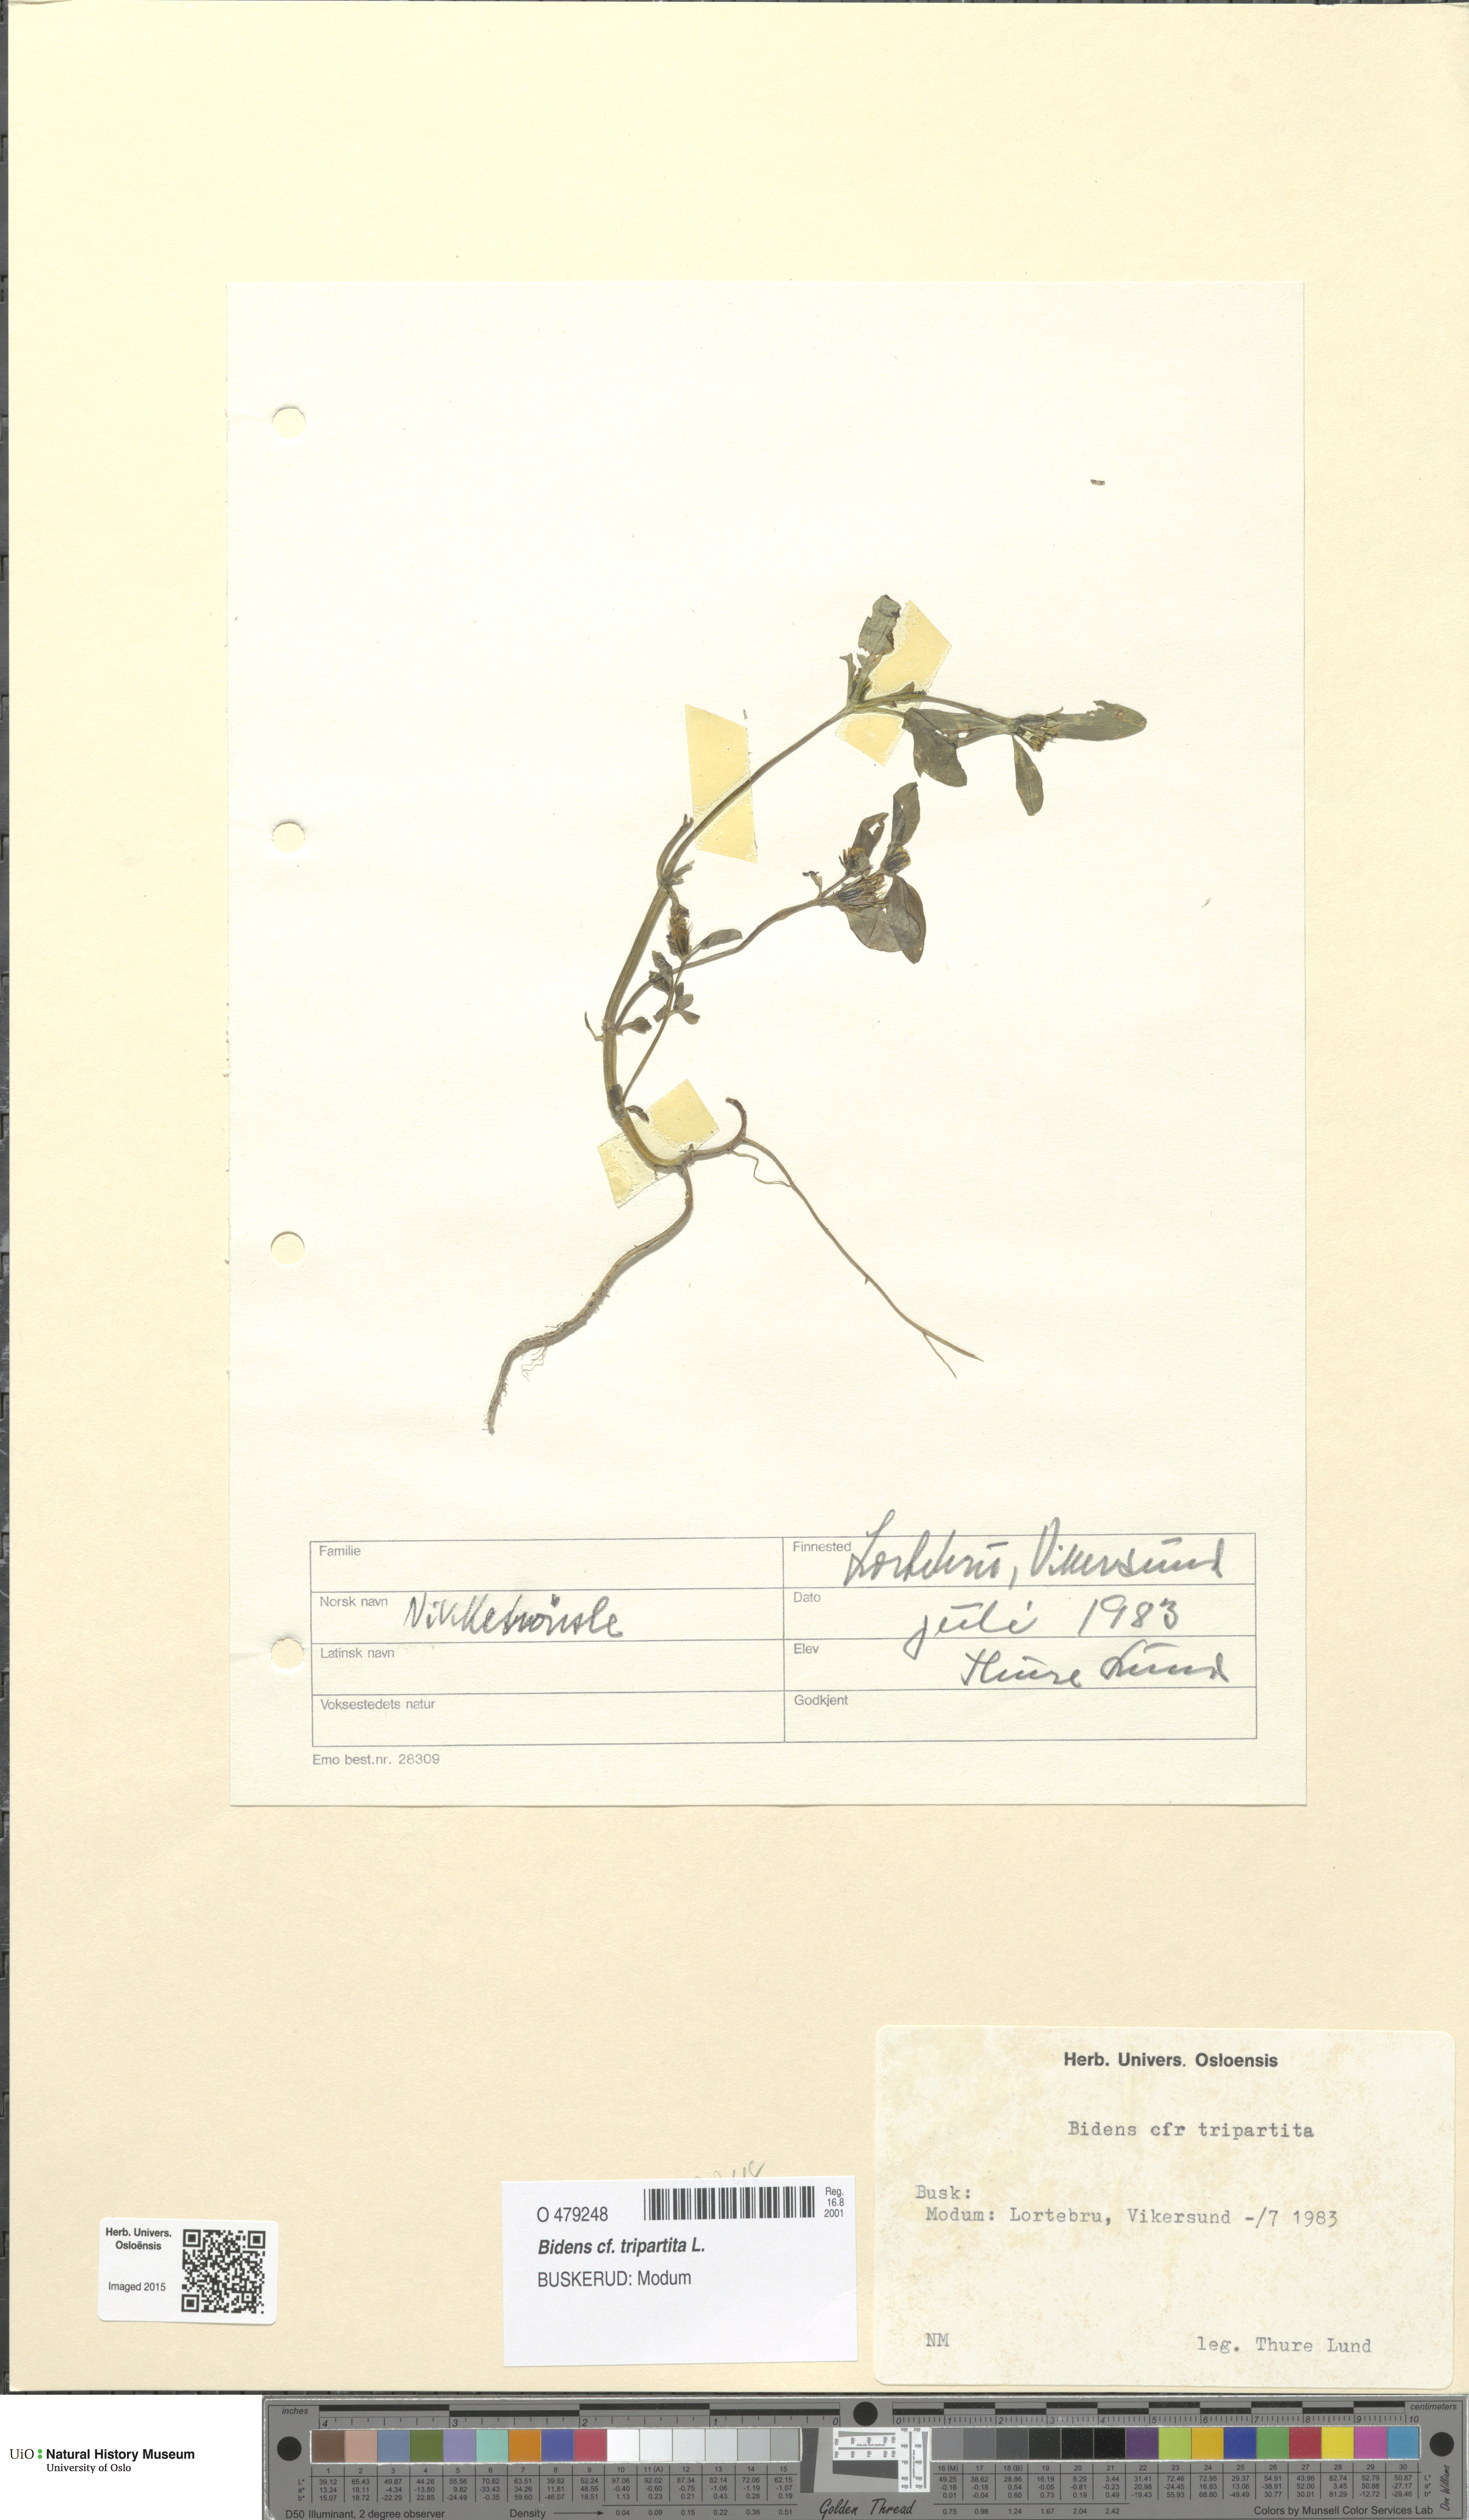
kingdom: Plantae
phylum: Tracheophyta
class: Magnoliopsida
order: Asterales
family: Asteraceae
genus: Bidens
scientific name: Bidens tripartita
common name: Trifid bur-marigold
